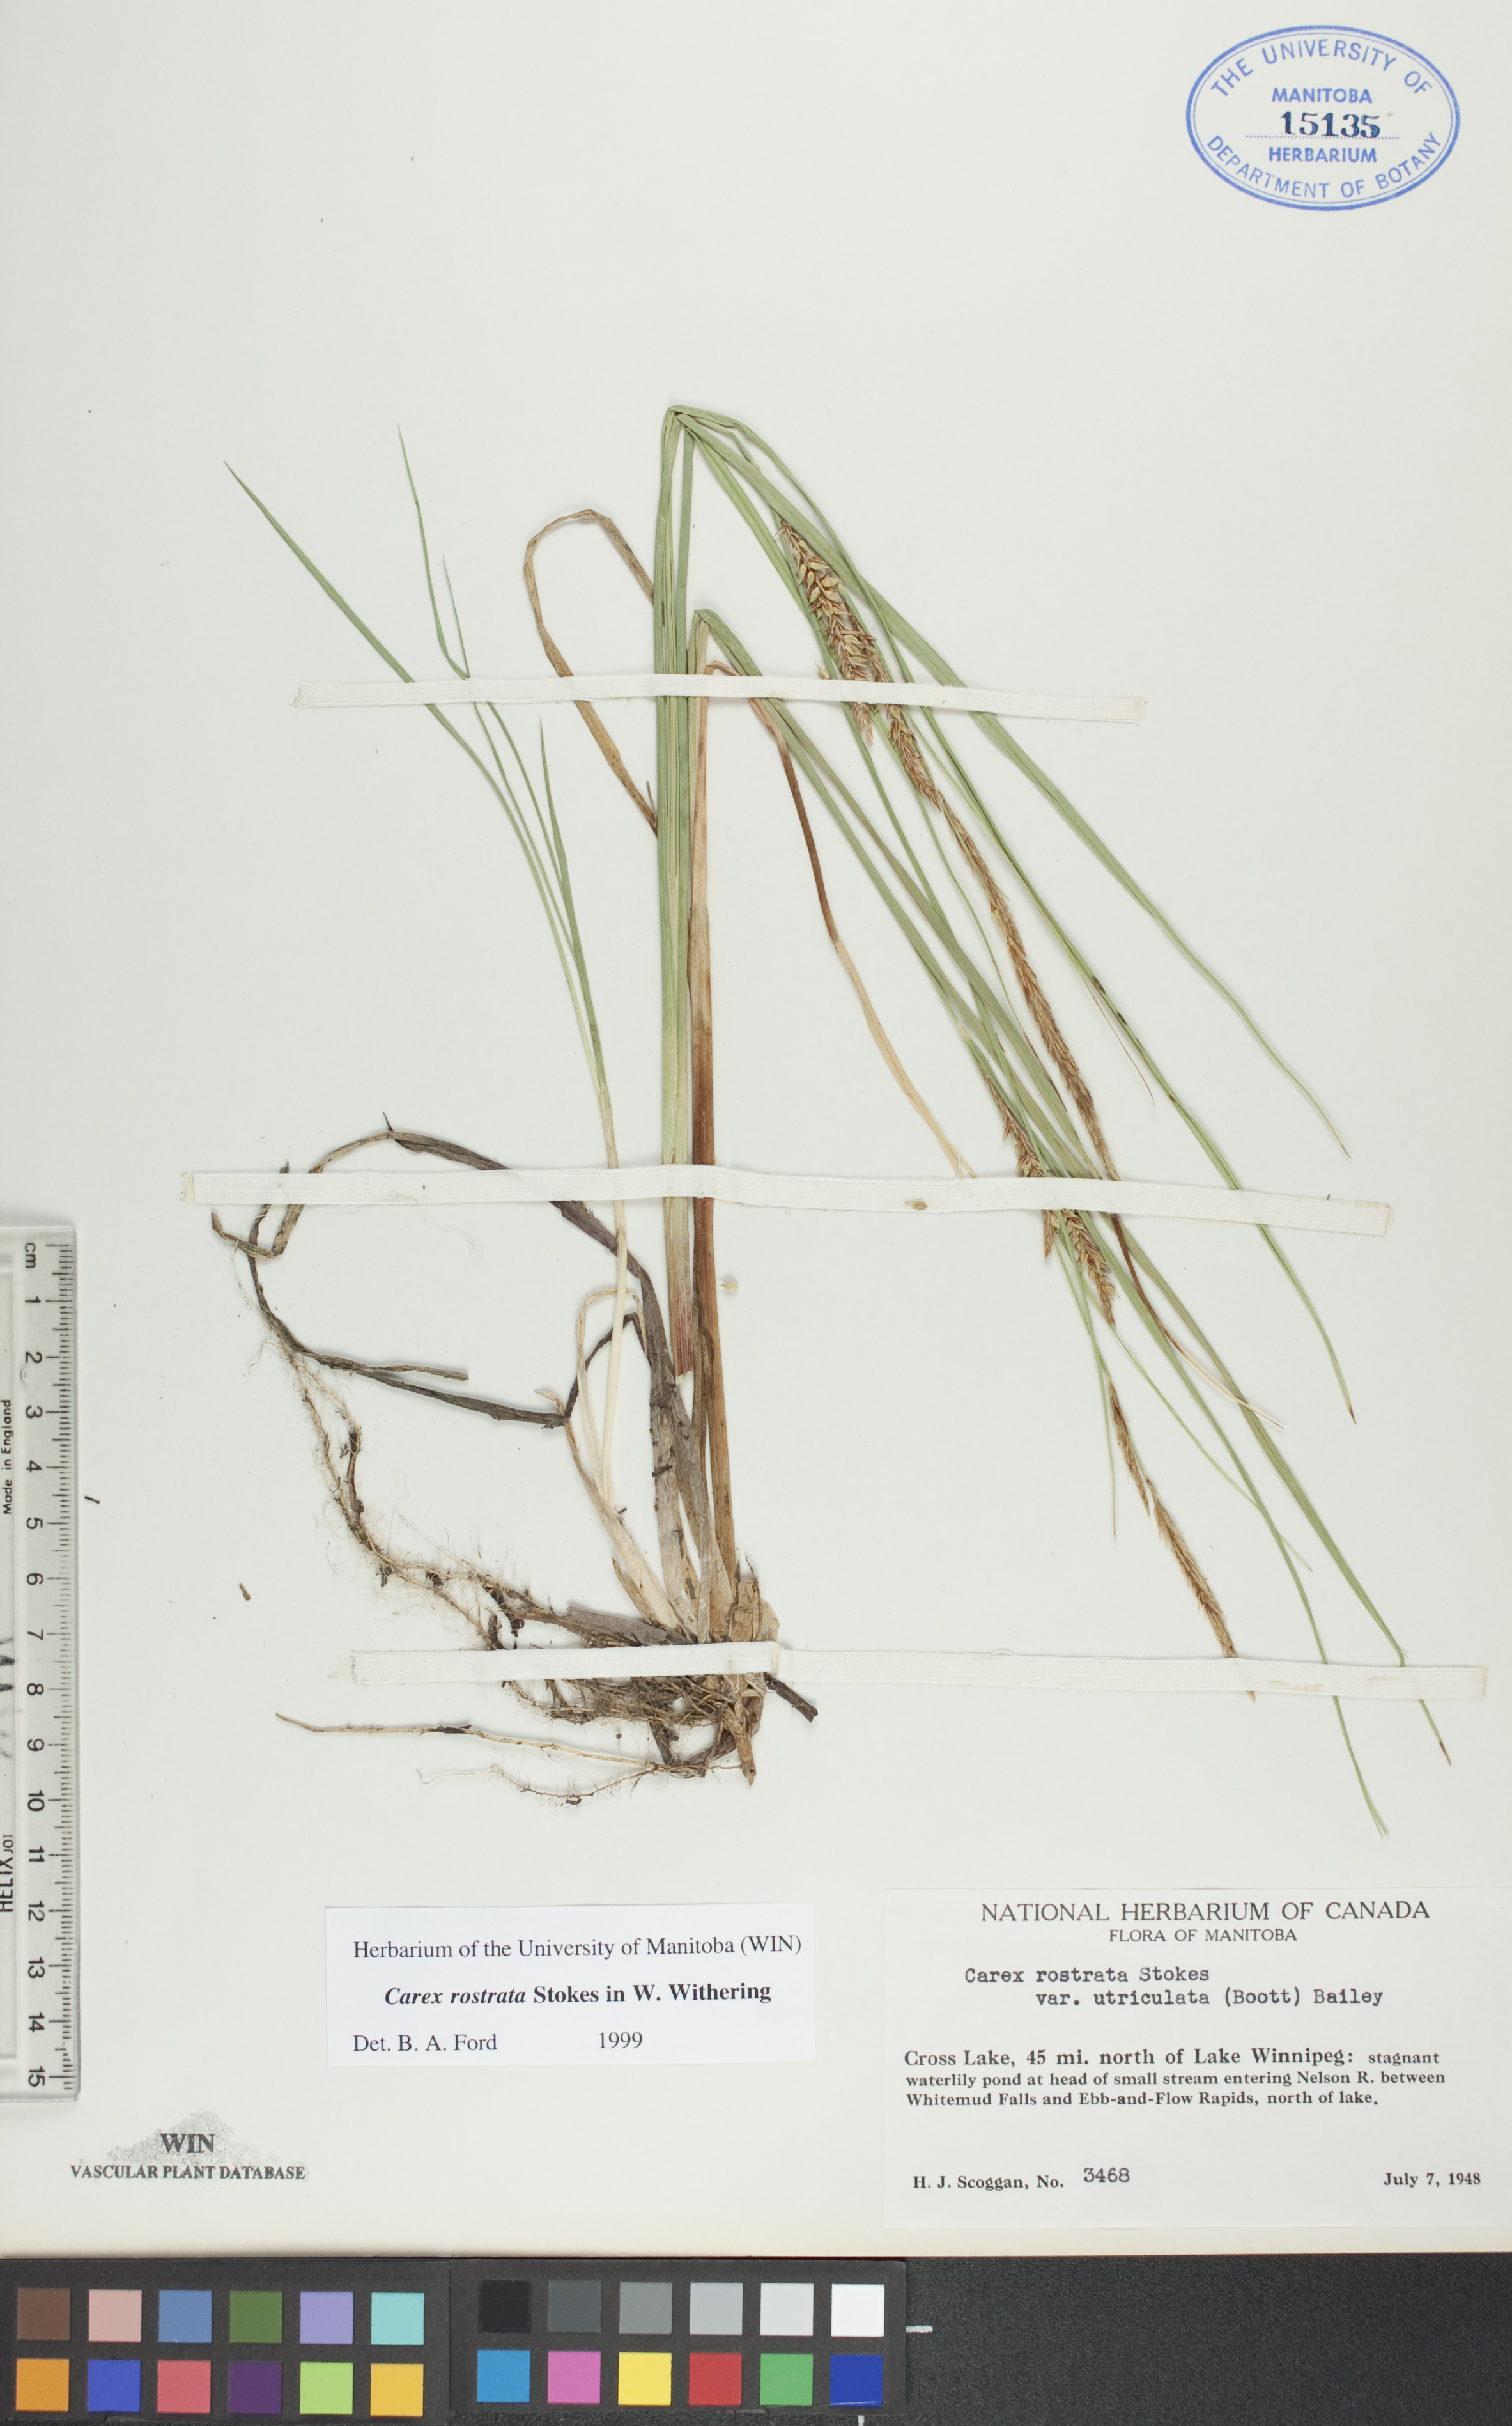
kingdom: Plantae
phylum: Tracheophyta
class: Liliopsida
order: Poales
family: Cyperaceae
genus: Carex
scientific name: Carex rostrata
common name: Bottle sedge
